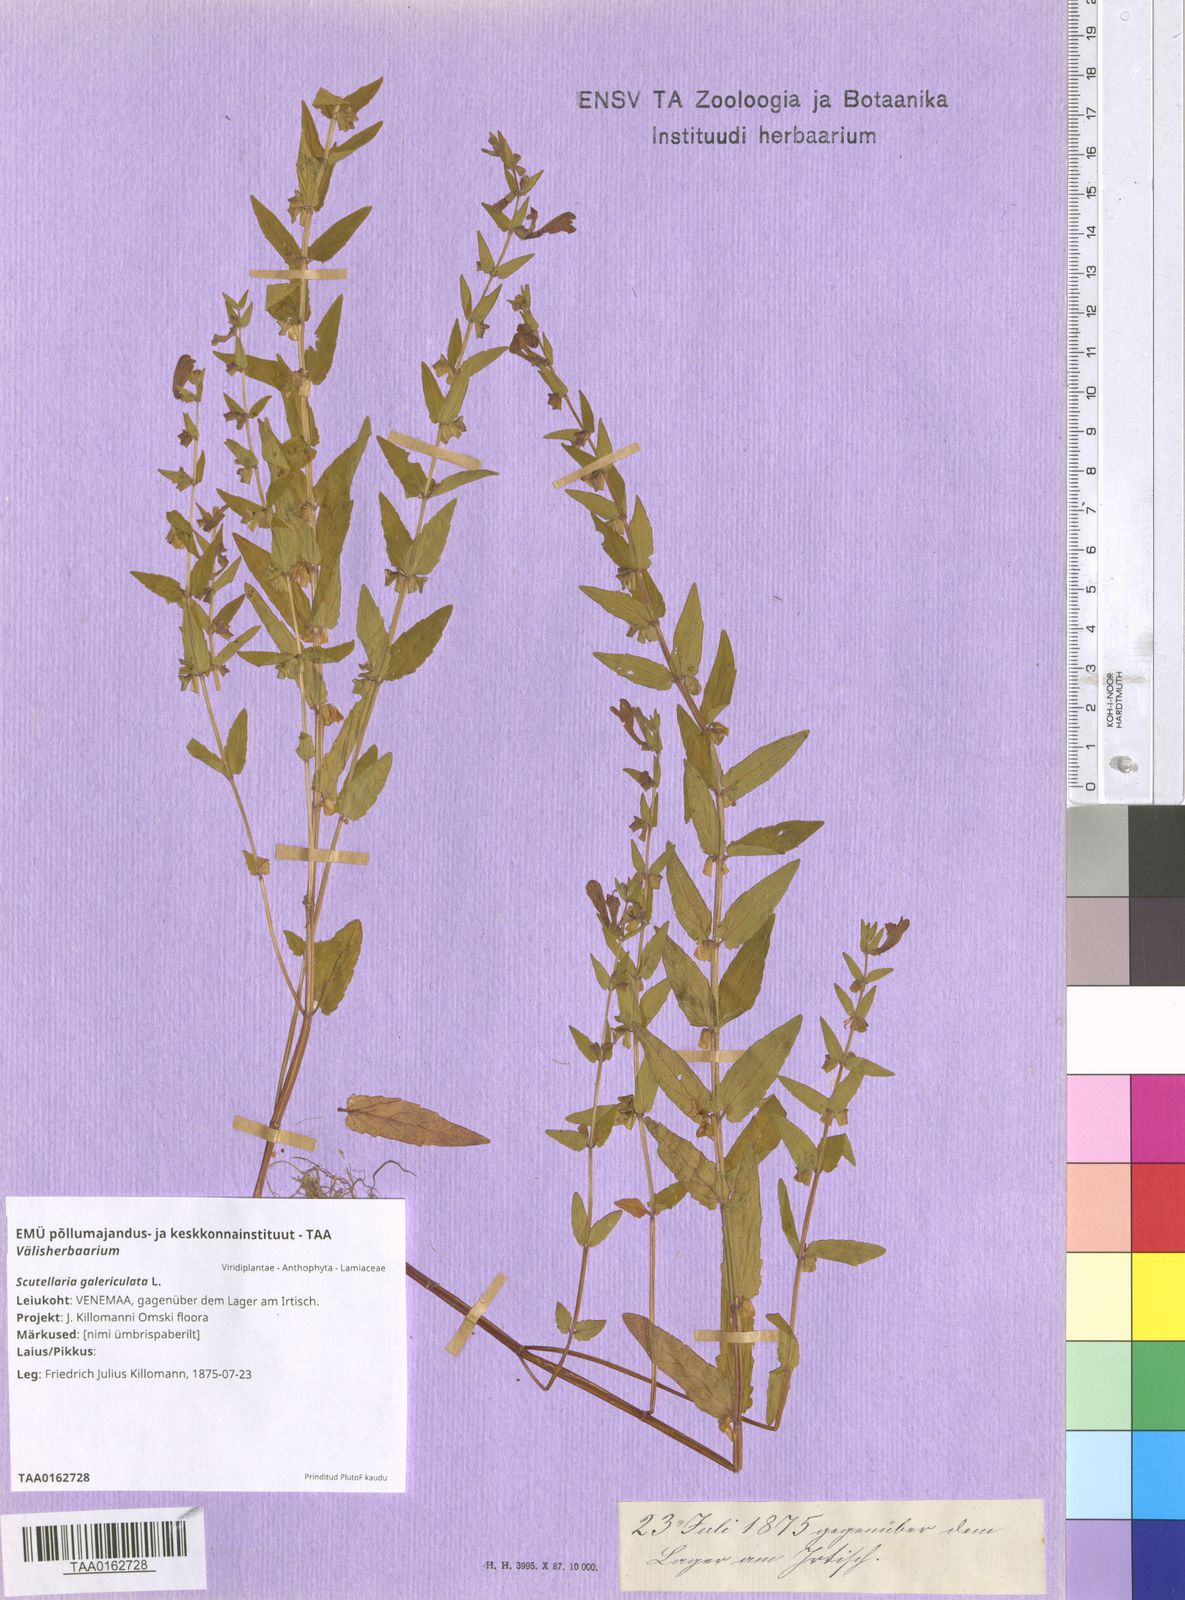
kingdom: Plantae
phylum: Tracheophyta
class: Magnoliopsida
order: Lamiales
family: Lamiaceae
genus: Scutellaria
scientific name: Scutellaria galericulata
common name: Skullcap
